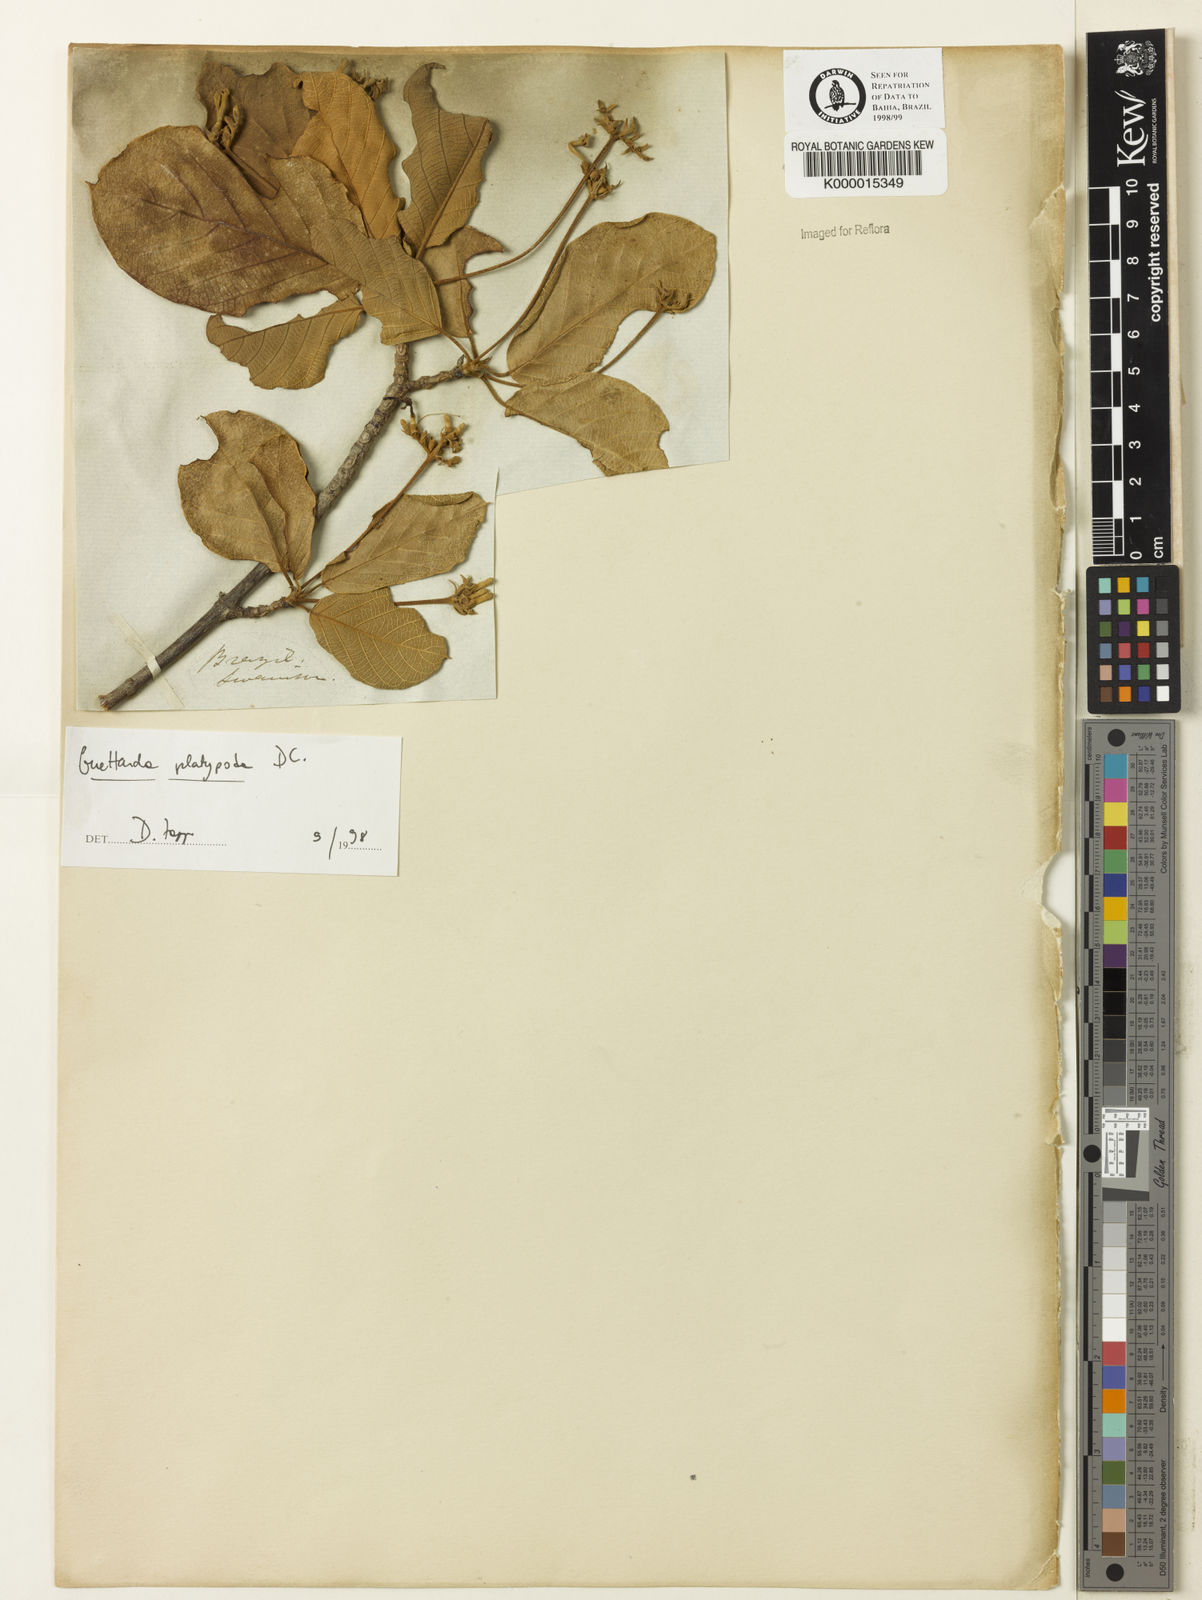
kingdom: Plantae
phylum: Tracheophyta
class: Magnoliopsida
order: Gentianales
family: Rubiaceae
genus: Guettarda
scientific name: Guettarda platypoda
